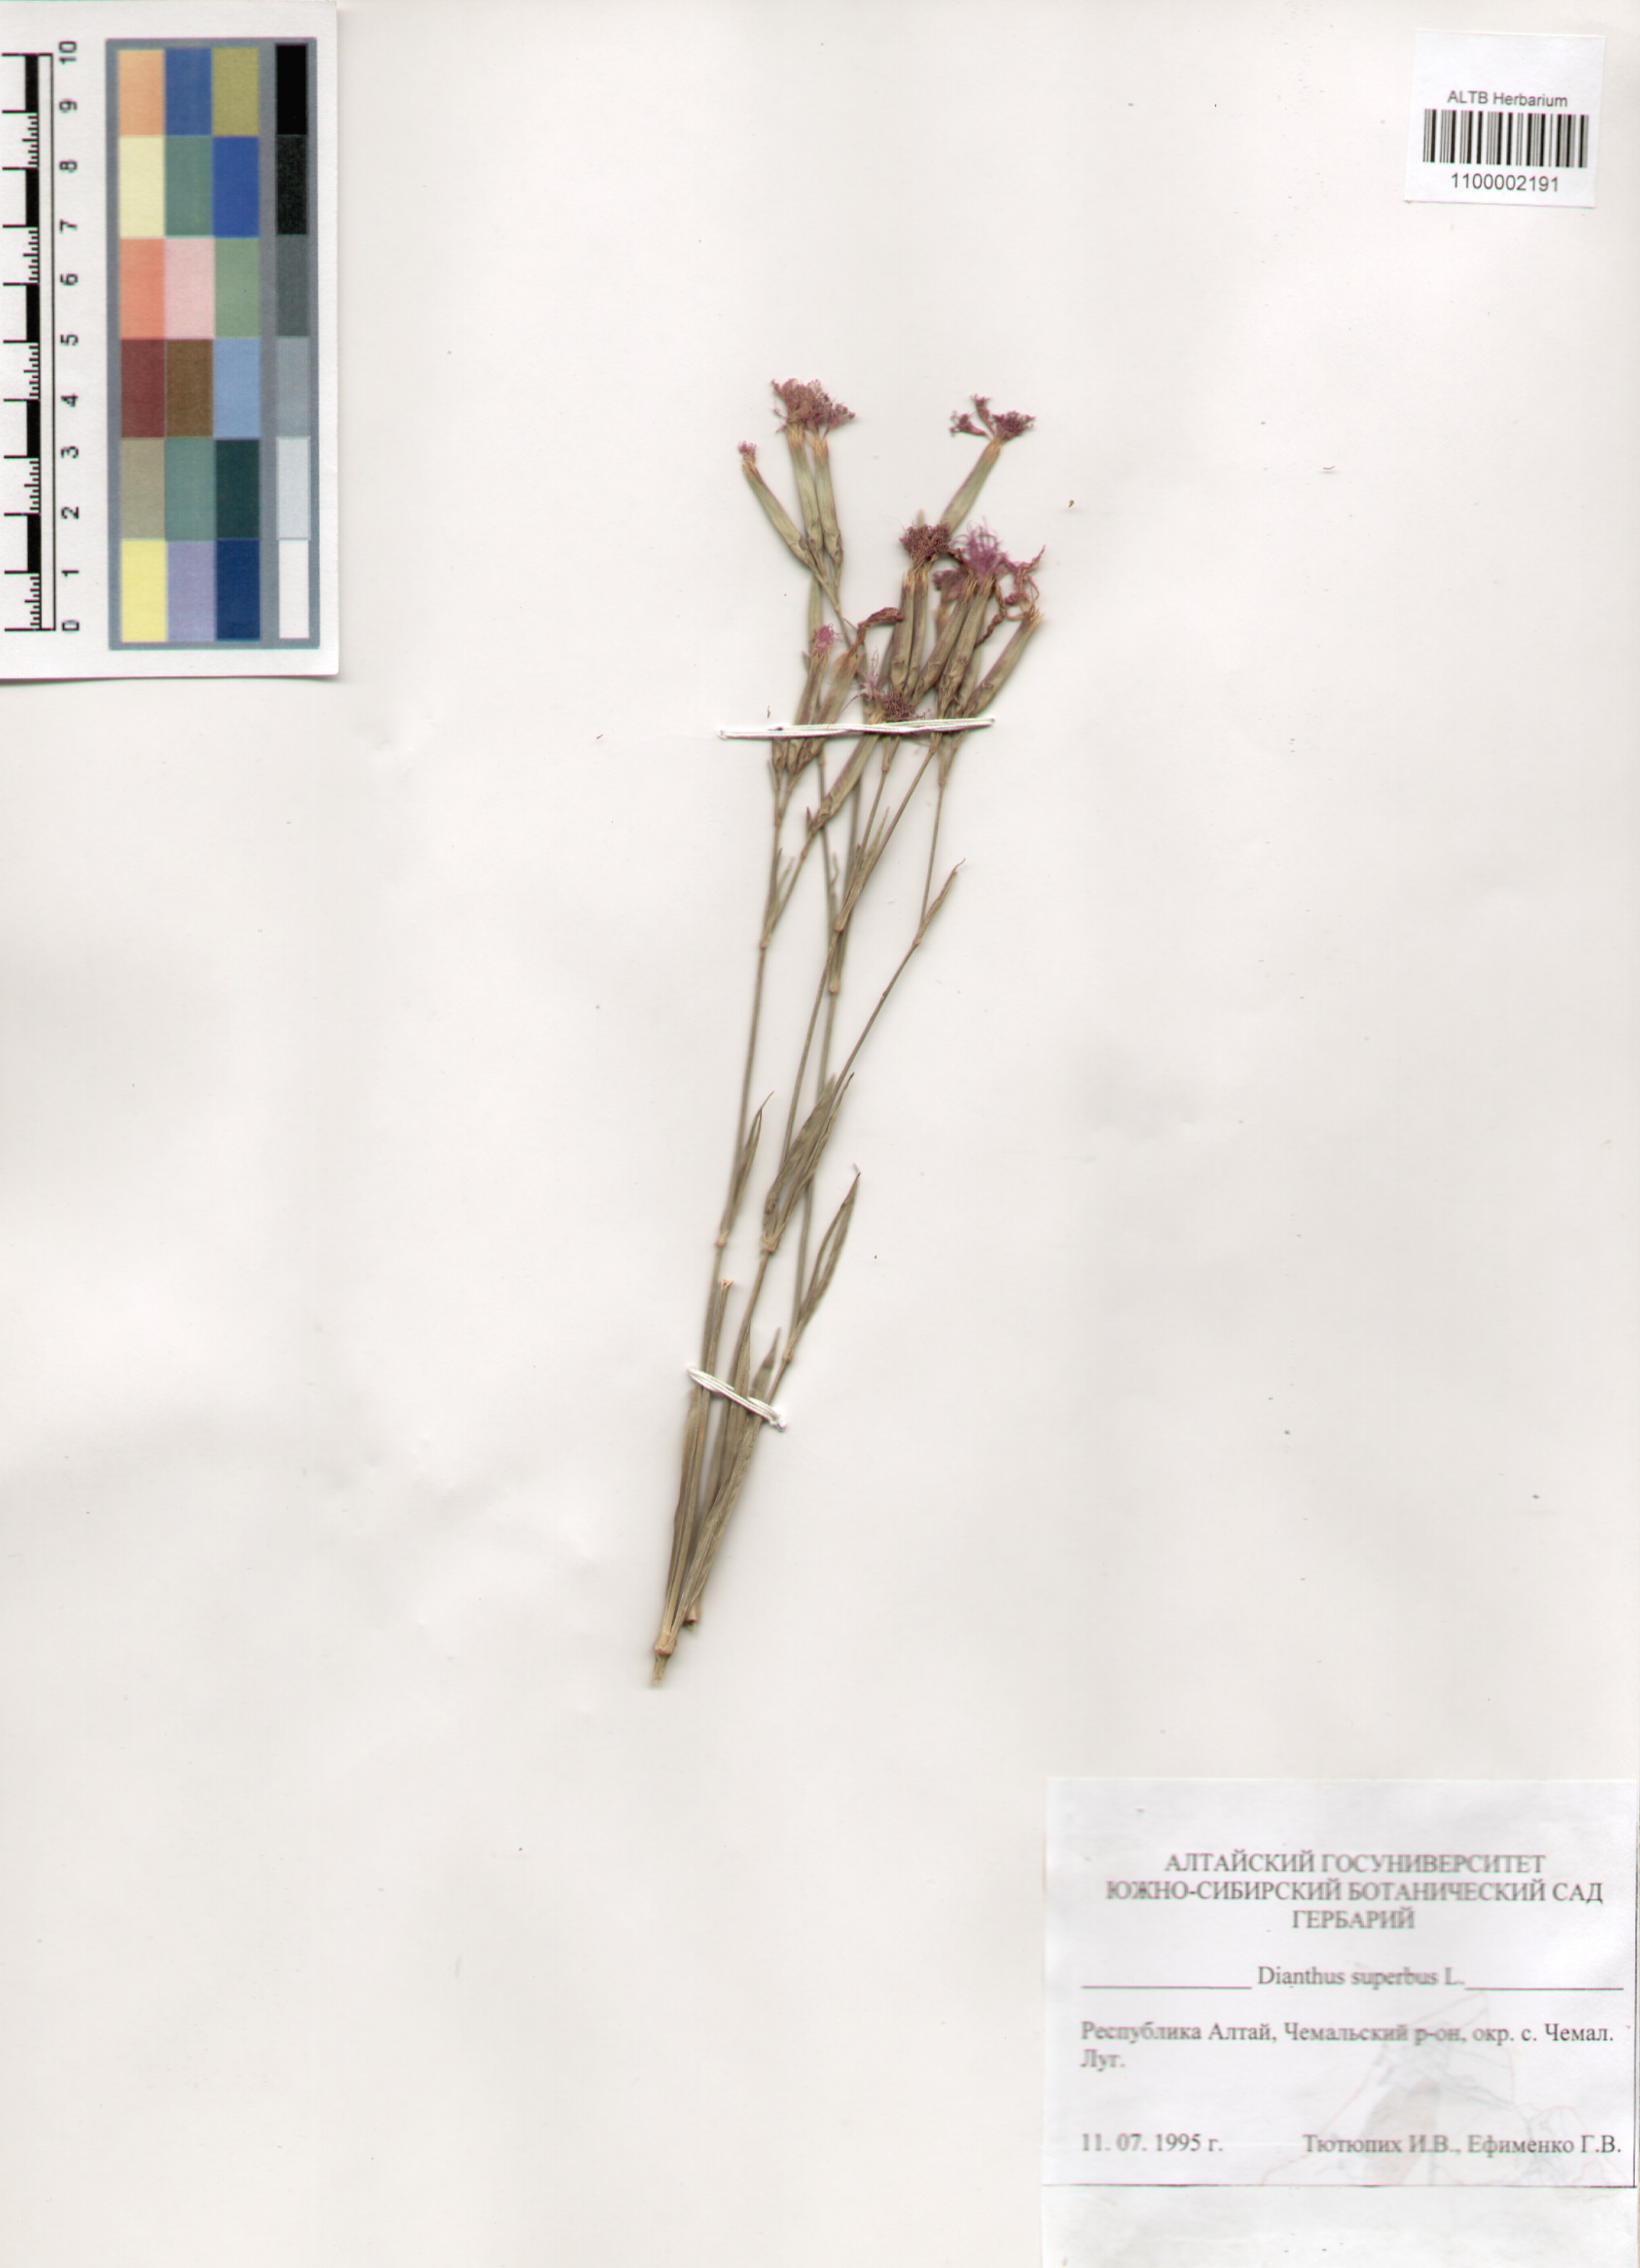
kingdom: Plantae
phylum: Tracheophyta
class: Magnoliopsida
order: Caryophyllales
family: Caryophyllaceae
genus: Dianthus
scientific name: Dianthus superbus
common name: Fringed pink
